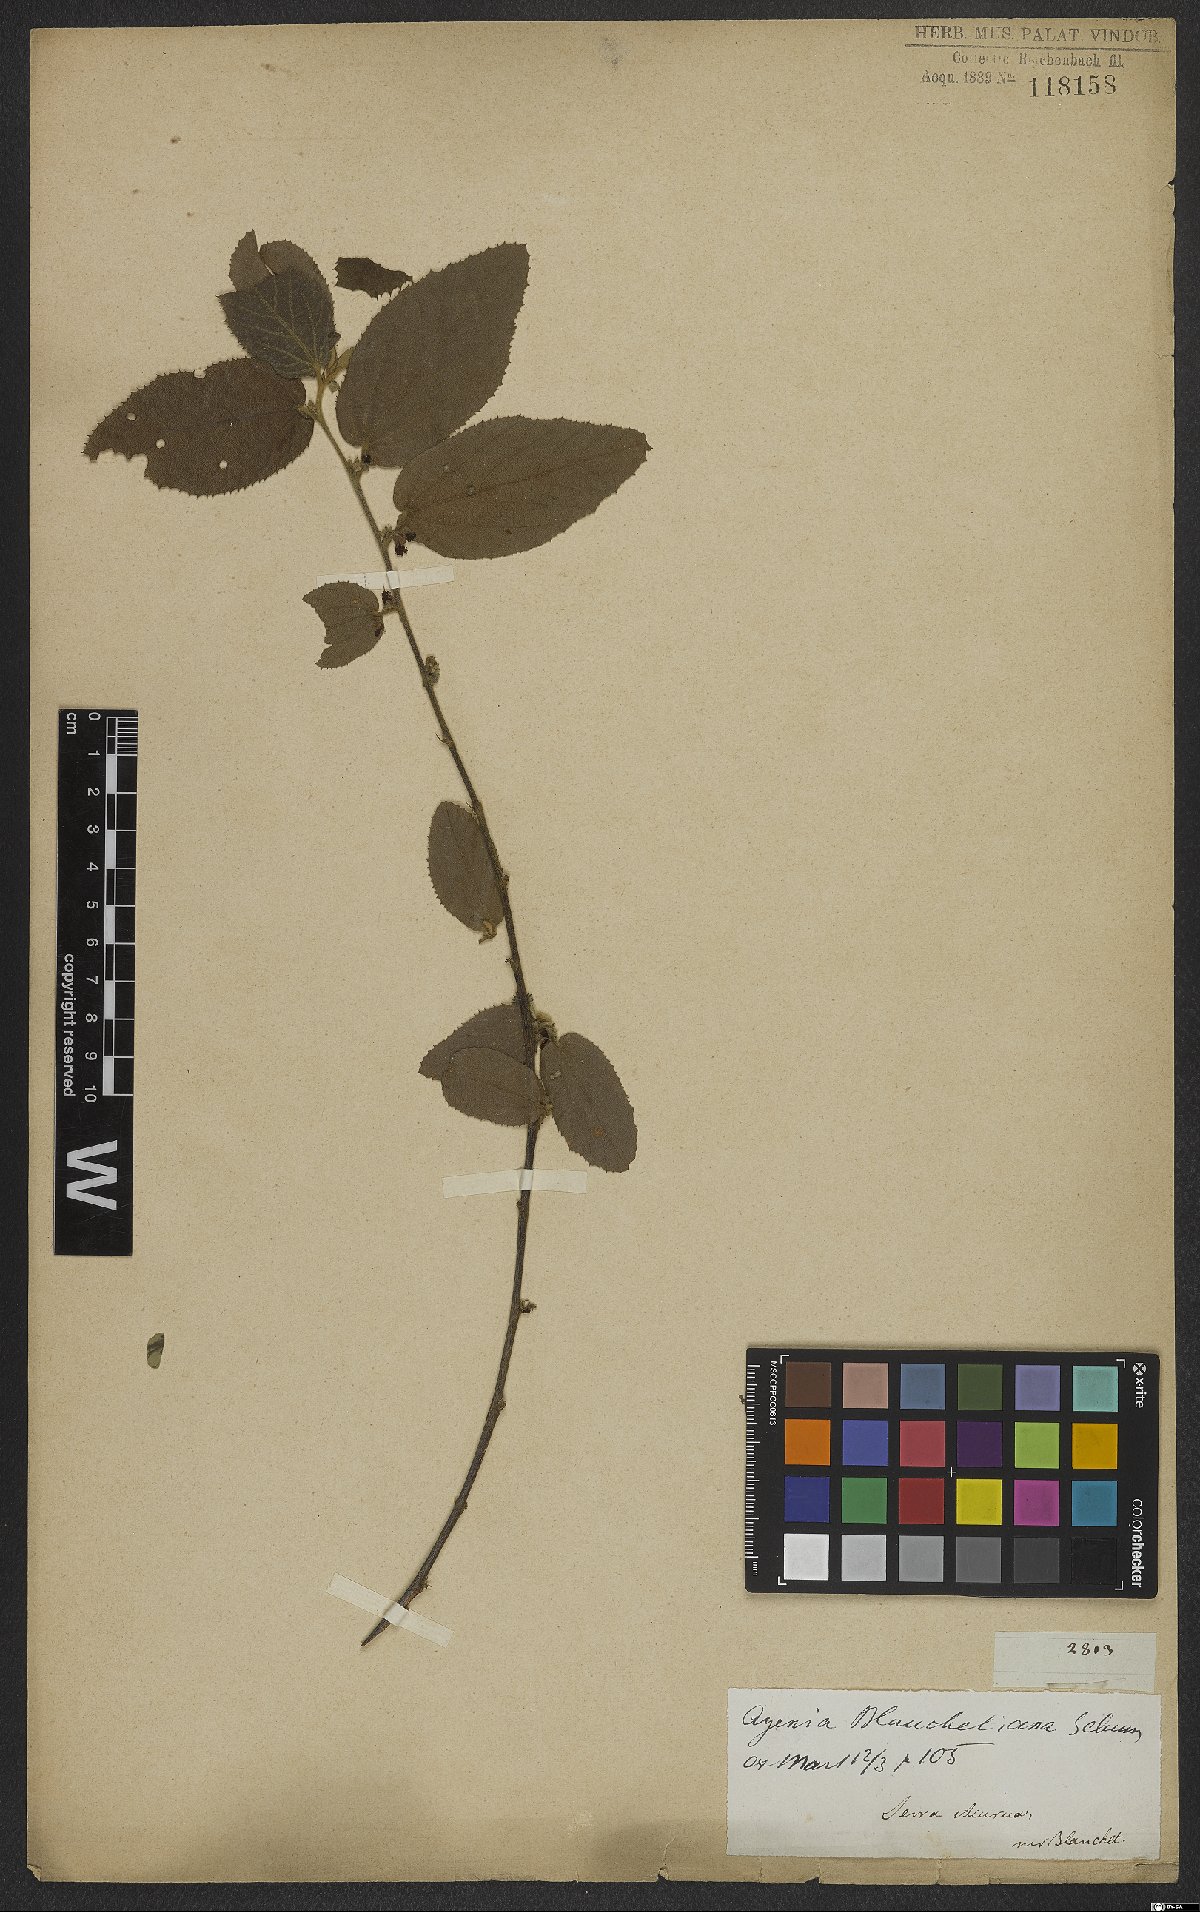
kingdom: Plantae
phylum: Tracheophyta
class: Magnoliopsida
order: Malvales
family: Malvaceae
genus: Ayenia
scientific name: Ayenia blanchetiana
